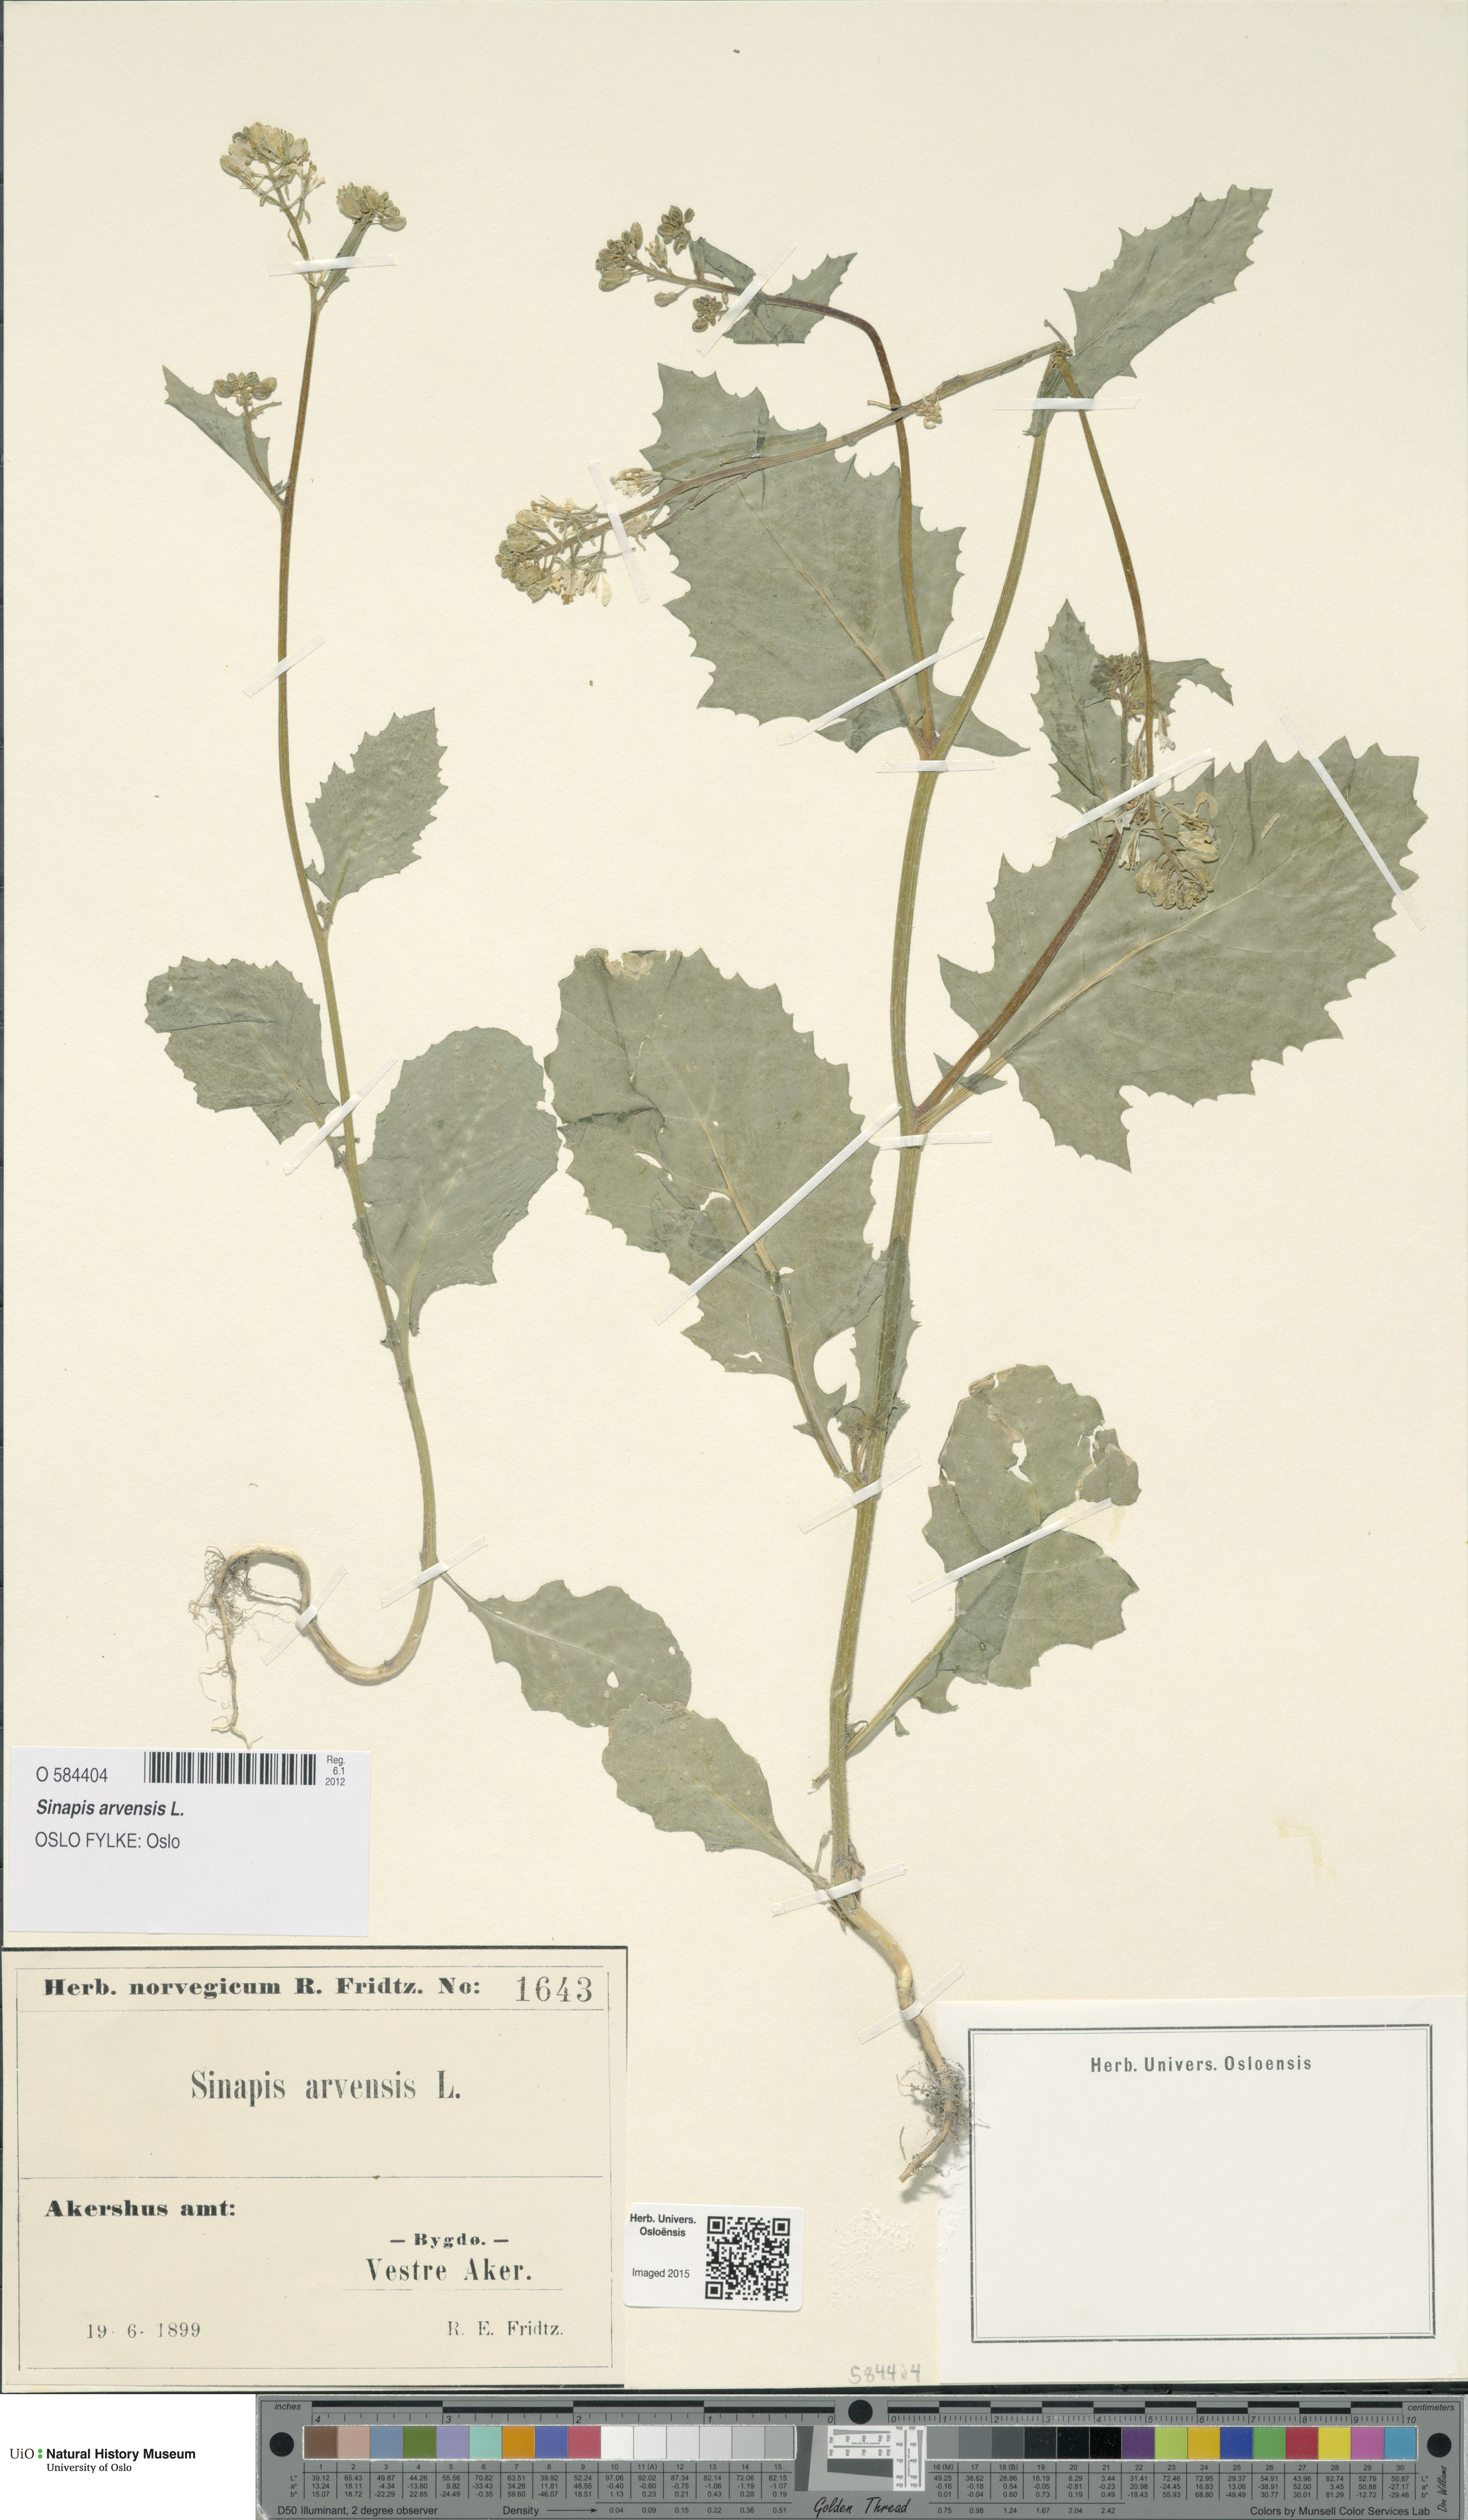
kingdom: Plantae
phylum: Tracheophyta
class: Magnoliopsida
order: Brassicales
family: Brassicaceae
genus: Sinapis
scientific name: Sinapis arvensis
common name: Charlock
